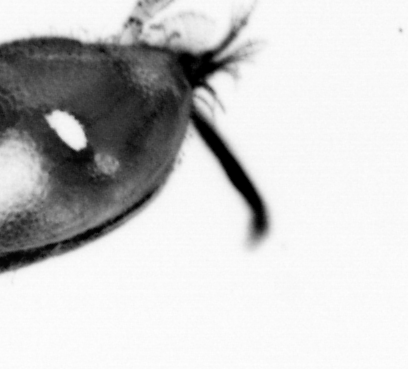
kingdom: Animalia
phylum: Chordata
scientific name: Chordata
